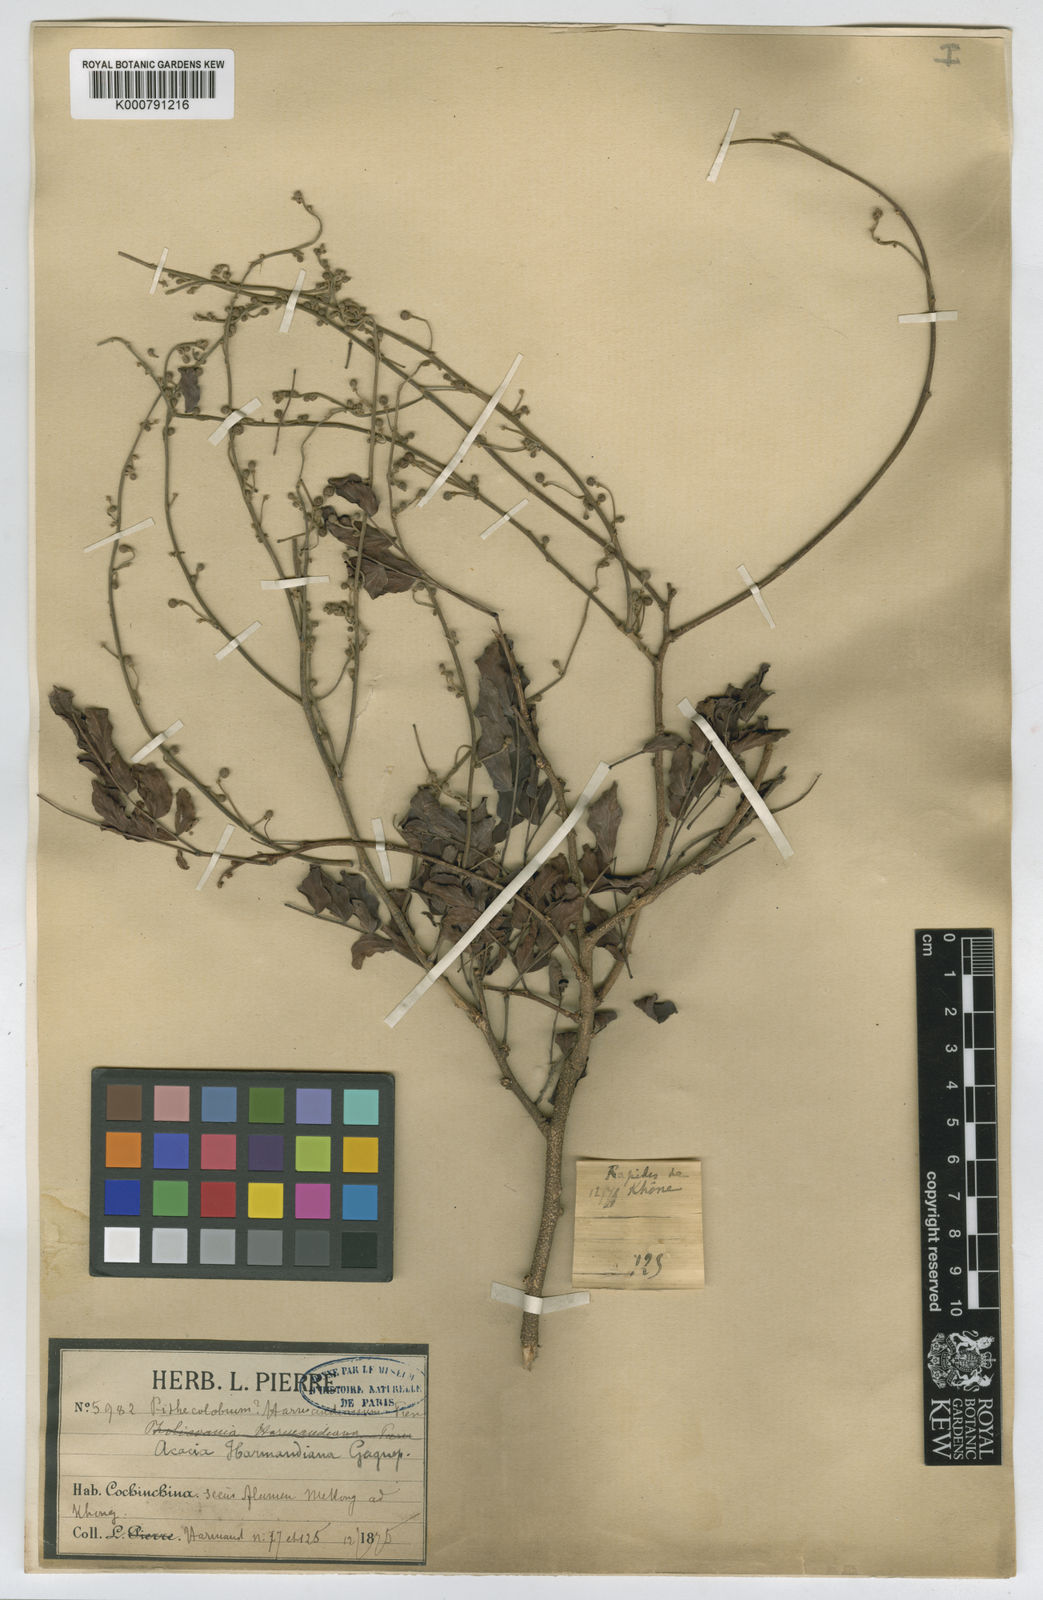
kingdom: Plantae
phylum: Tracheophyta
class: Magnoliopsida
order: Fabales
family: Fabaceae
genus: Vachellia
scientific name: Vachellia harmandiana
